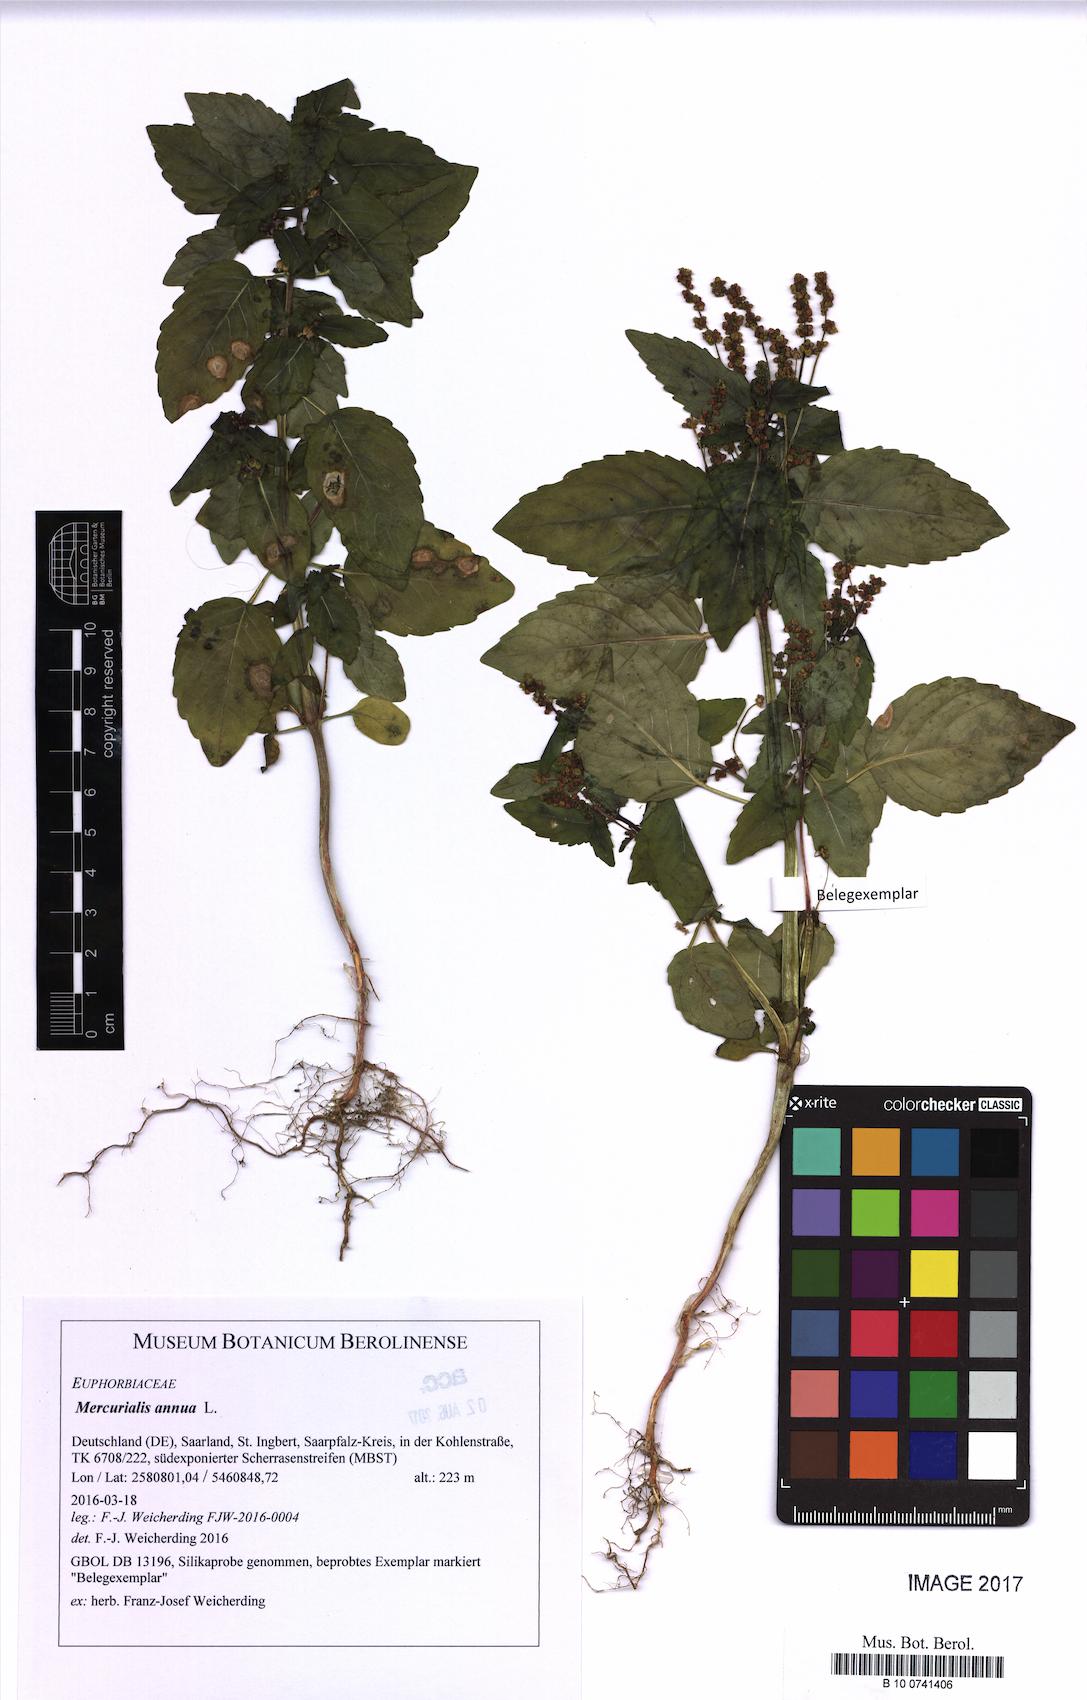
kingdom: Plantae
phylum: Tracheophyta
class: Magnoliopsida
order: Malpighiales
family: Euphorbiaceae
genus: Mercurialis
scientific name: Mercurialis annua
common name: Annual mercury
